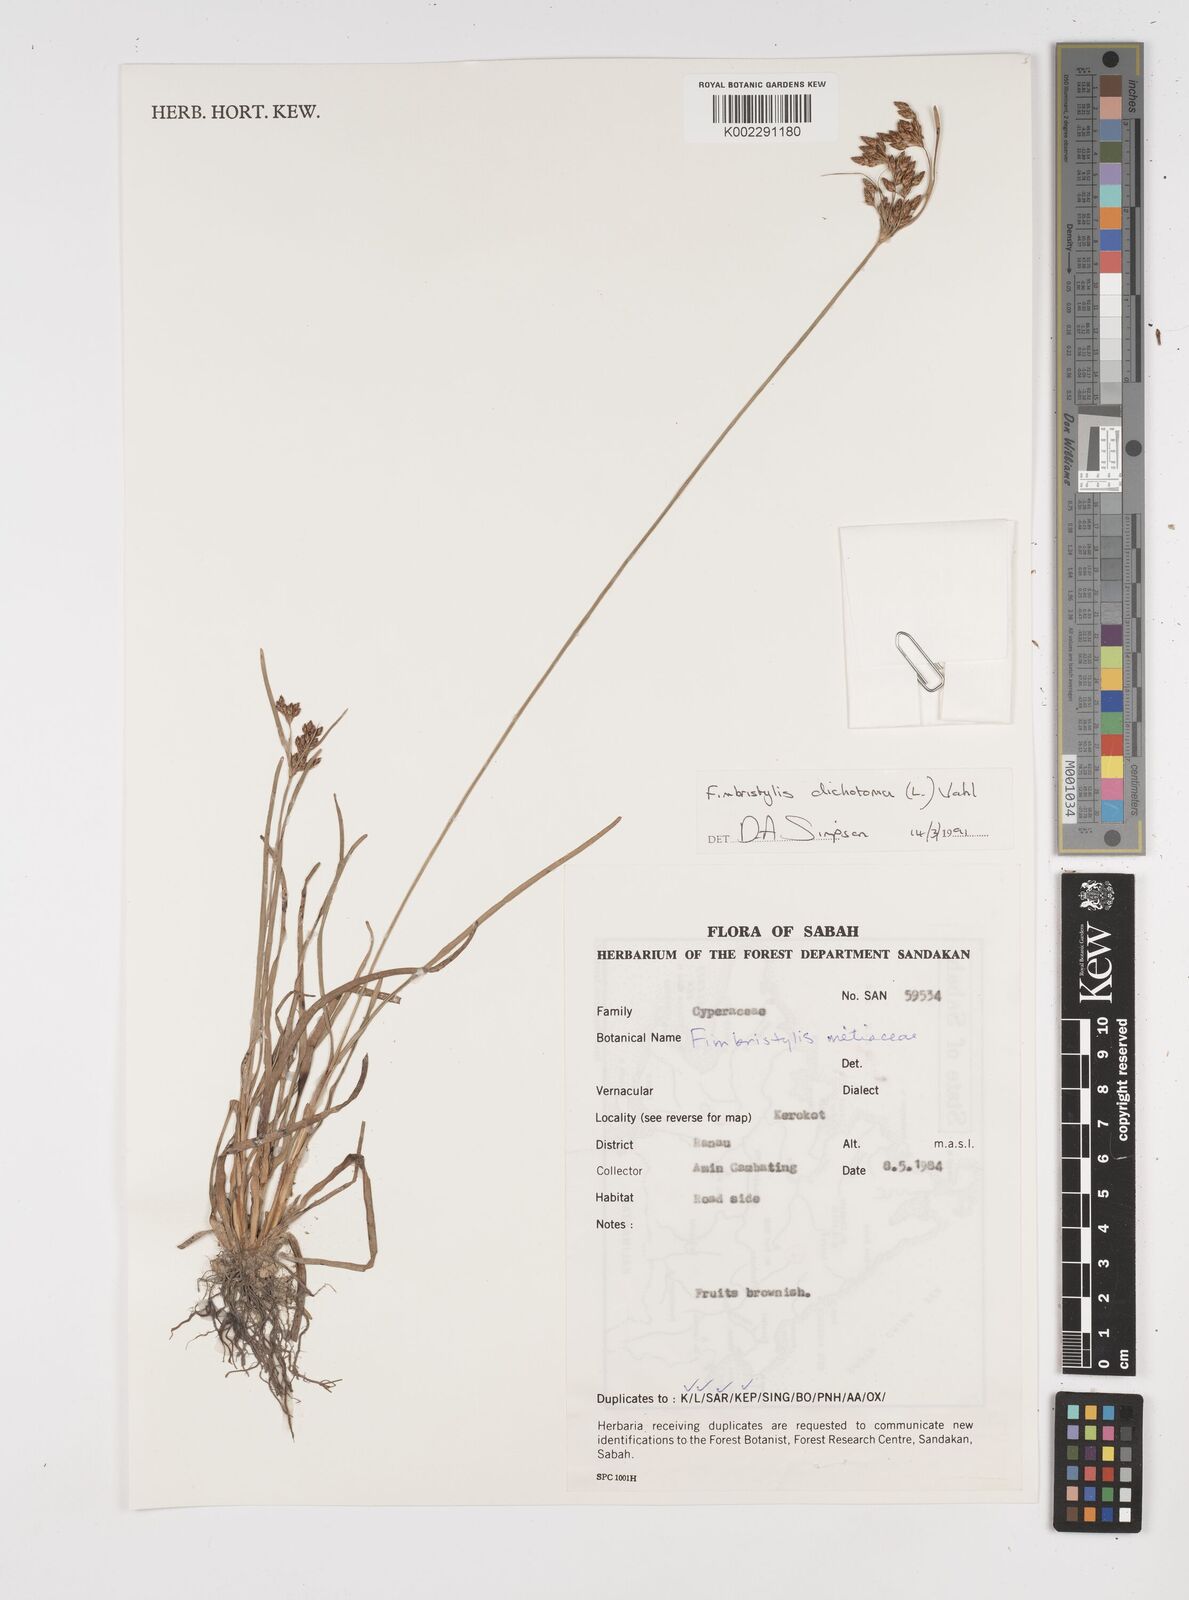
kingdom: Plantae
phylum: Tracheophyta
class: Liliopsida
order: Poales
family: Cyperaceae
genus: Fimbristylis
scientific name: Fimbristylis dichotoma
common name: Forked fimbry
